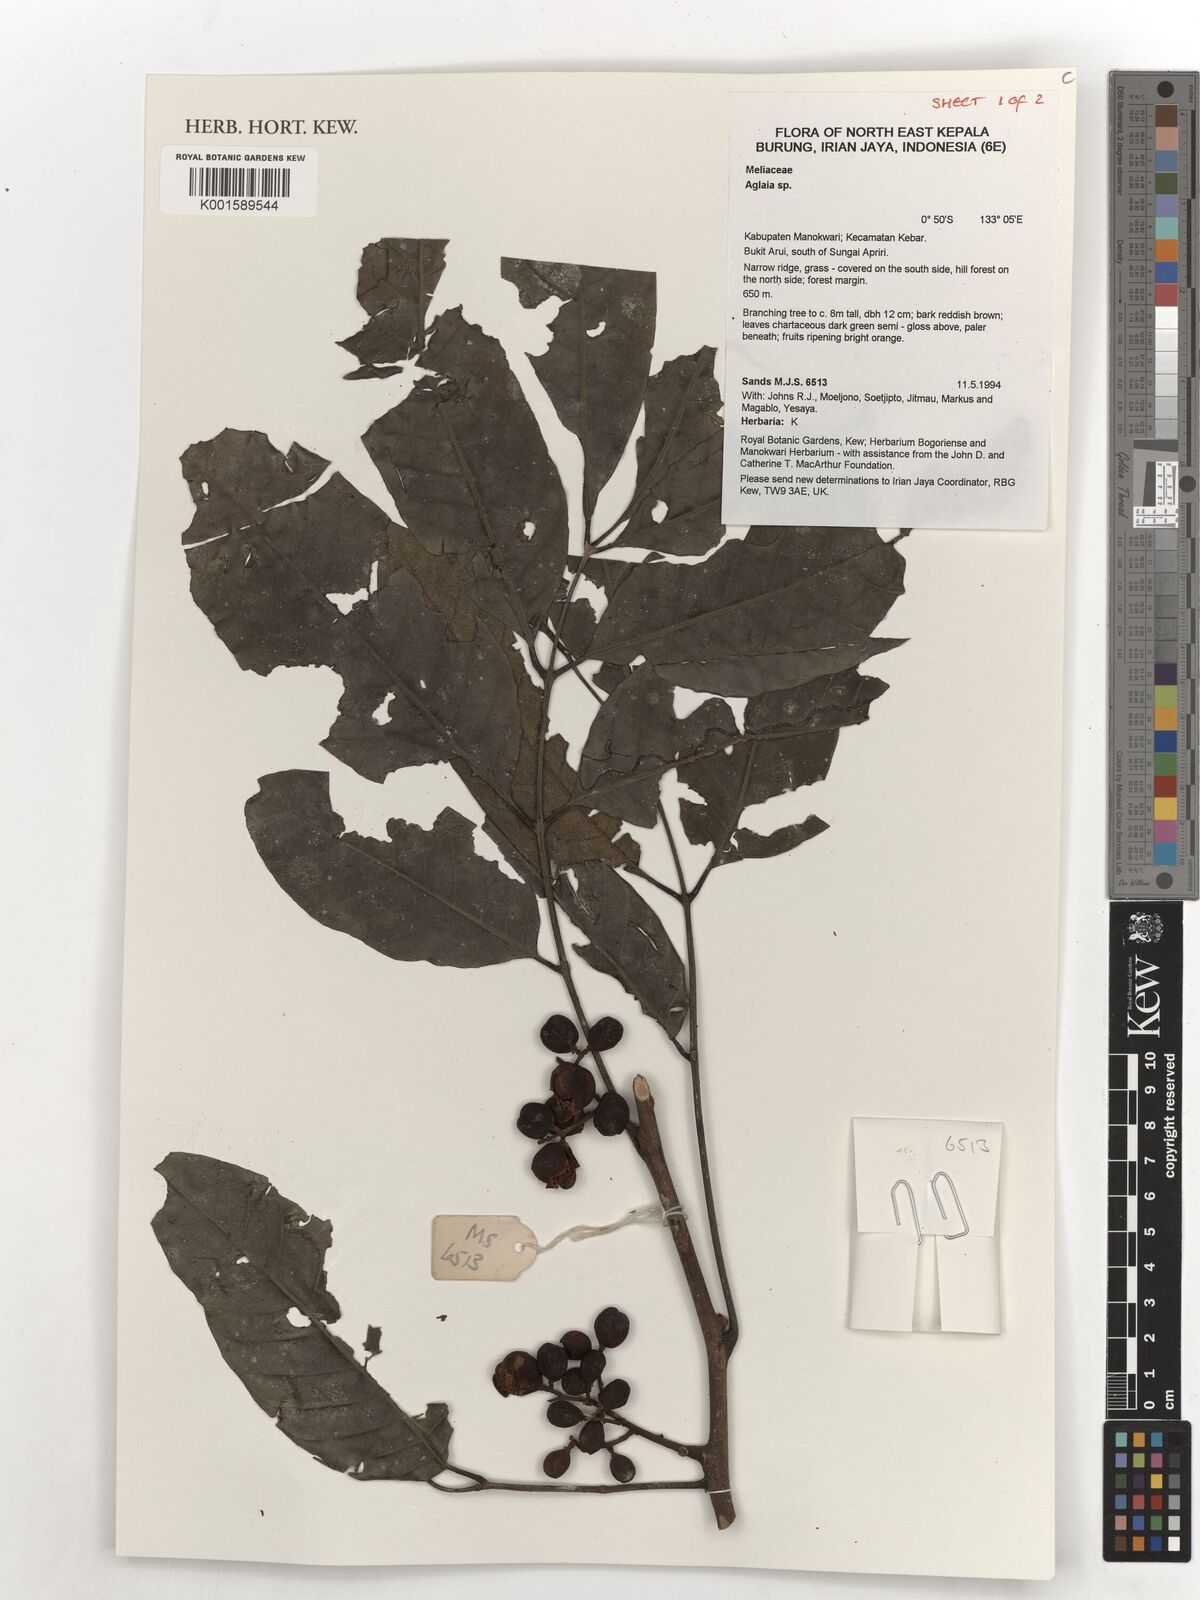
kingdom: Plantae
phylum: Tracheophyta
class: Magnoliopsida
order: Sapindales
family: Meliaceae
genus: Aglaia
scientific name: Aglaia
